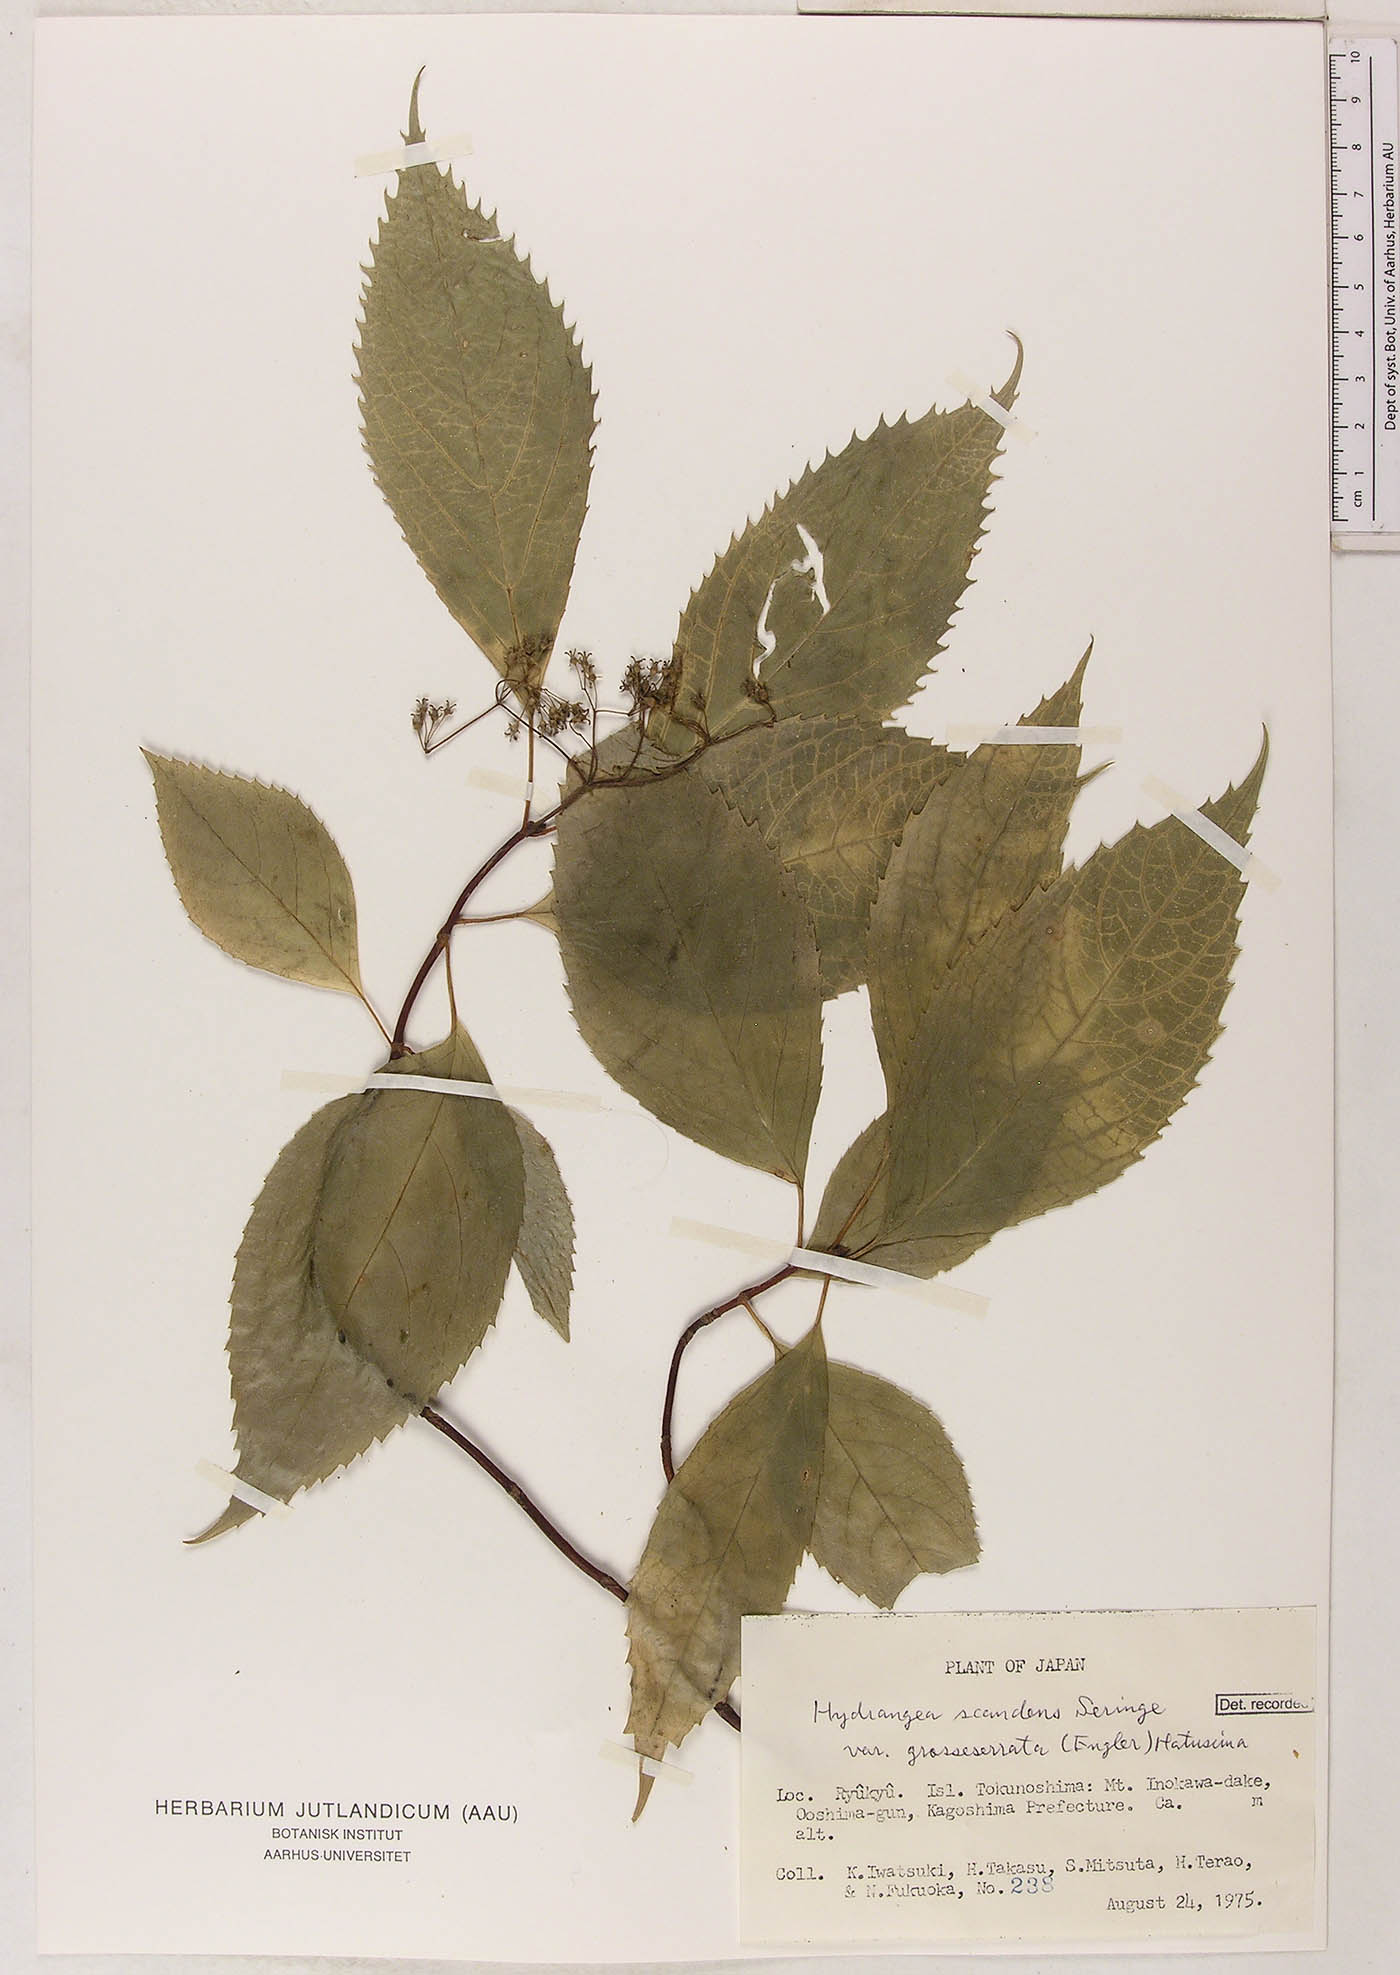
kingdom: Plantae
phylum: Tracheophyta
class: Magnoliopsida
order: Cornales
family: Hydrangeaceae
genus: Hydrangea
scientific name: Hydrangea kawagoeana
